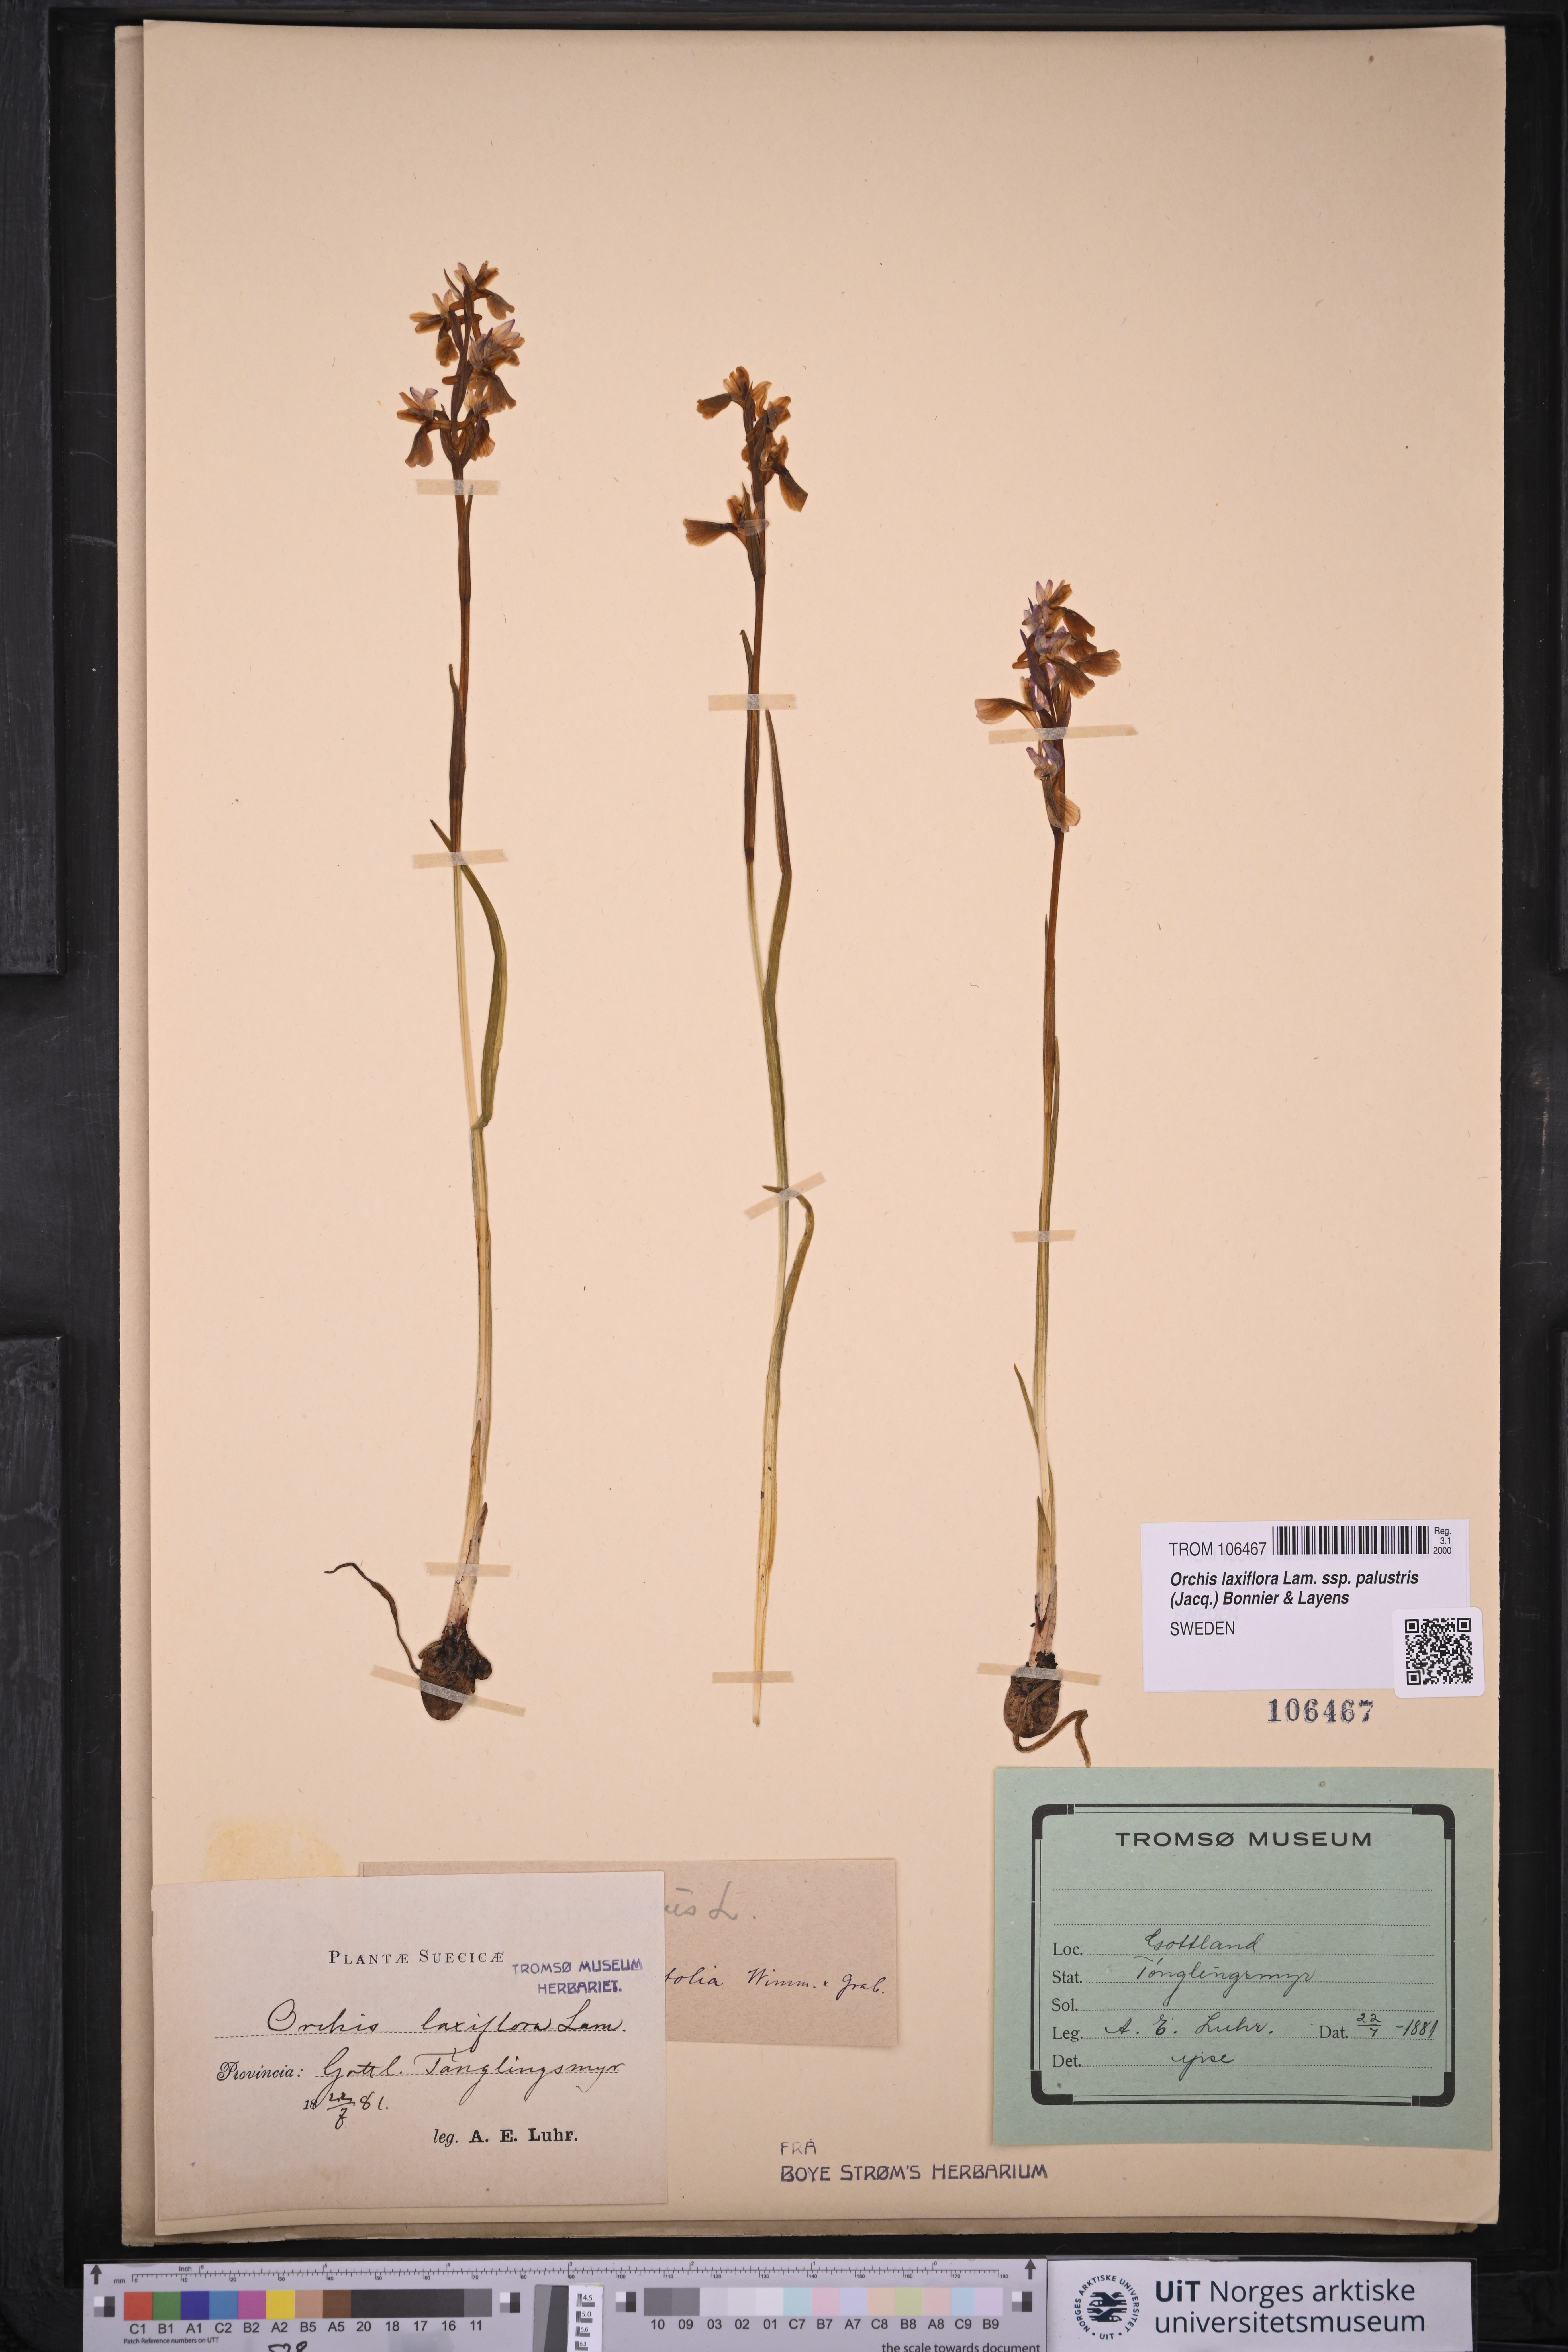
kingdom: Plantae
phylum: Tracheophyta
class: Liliopsida
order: Asparagales
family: Orchidaceae
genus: Anacamptis
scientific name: Anacamptis palustris
